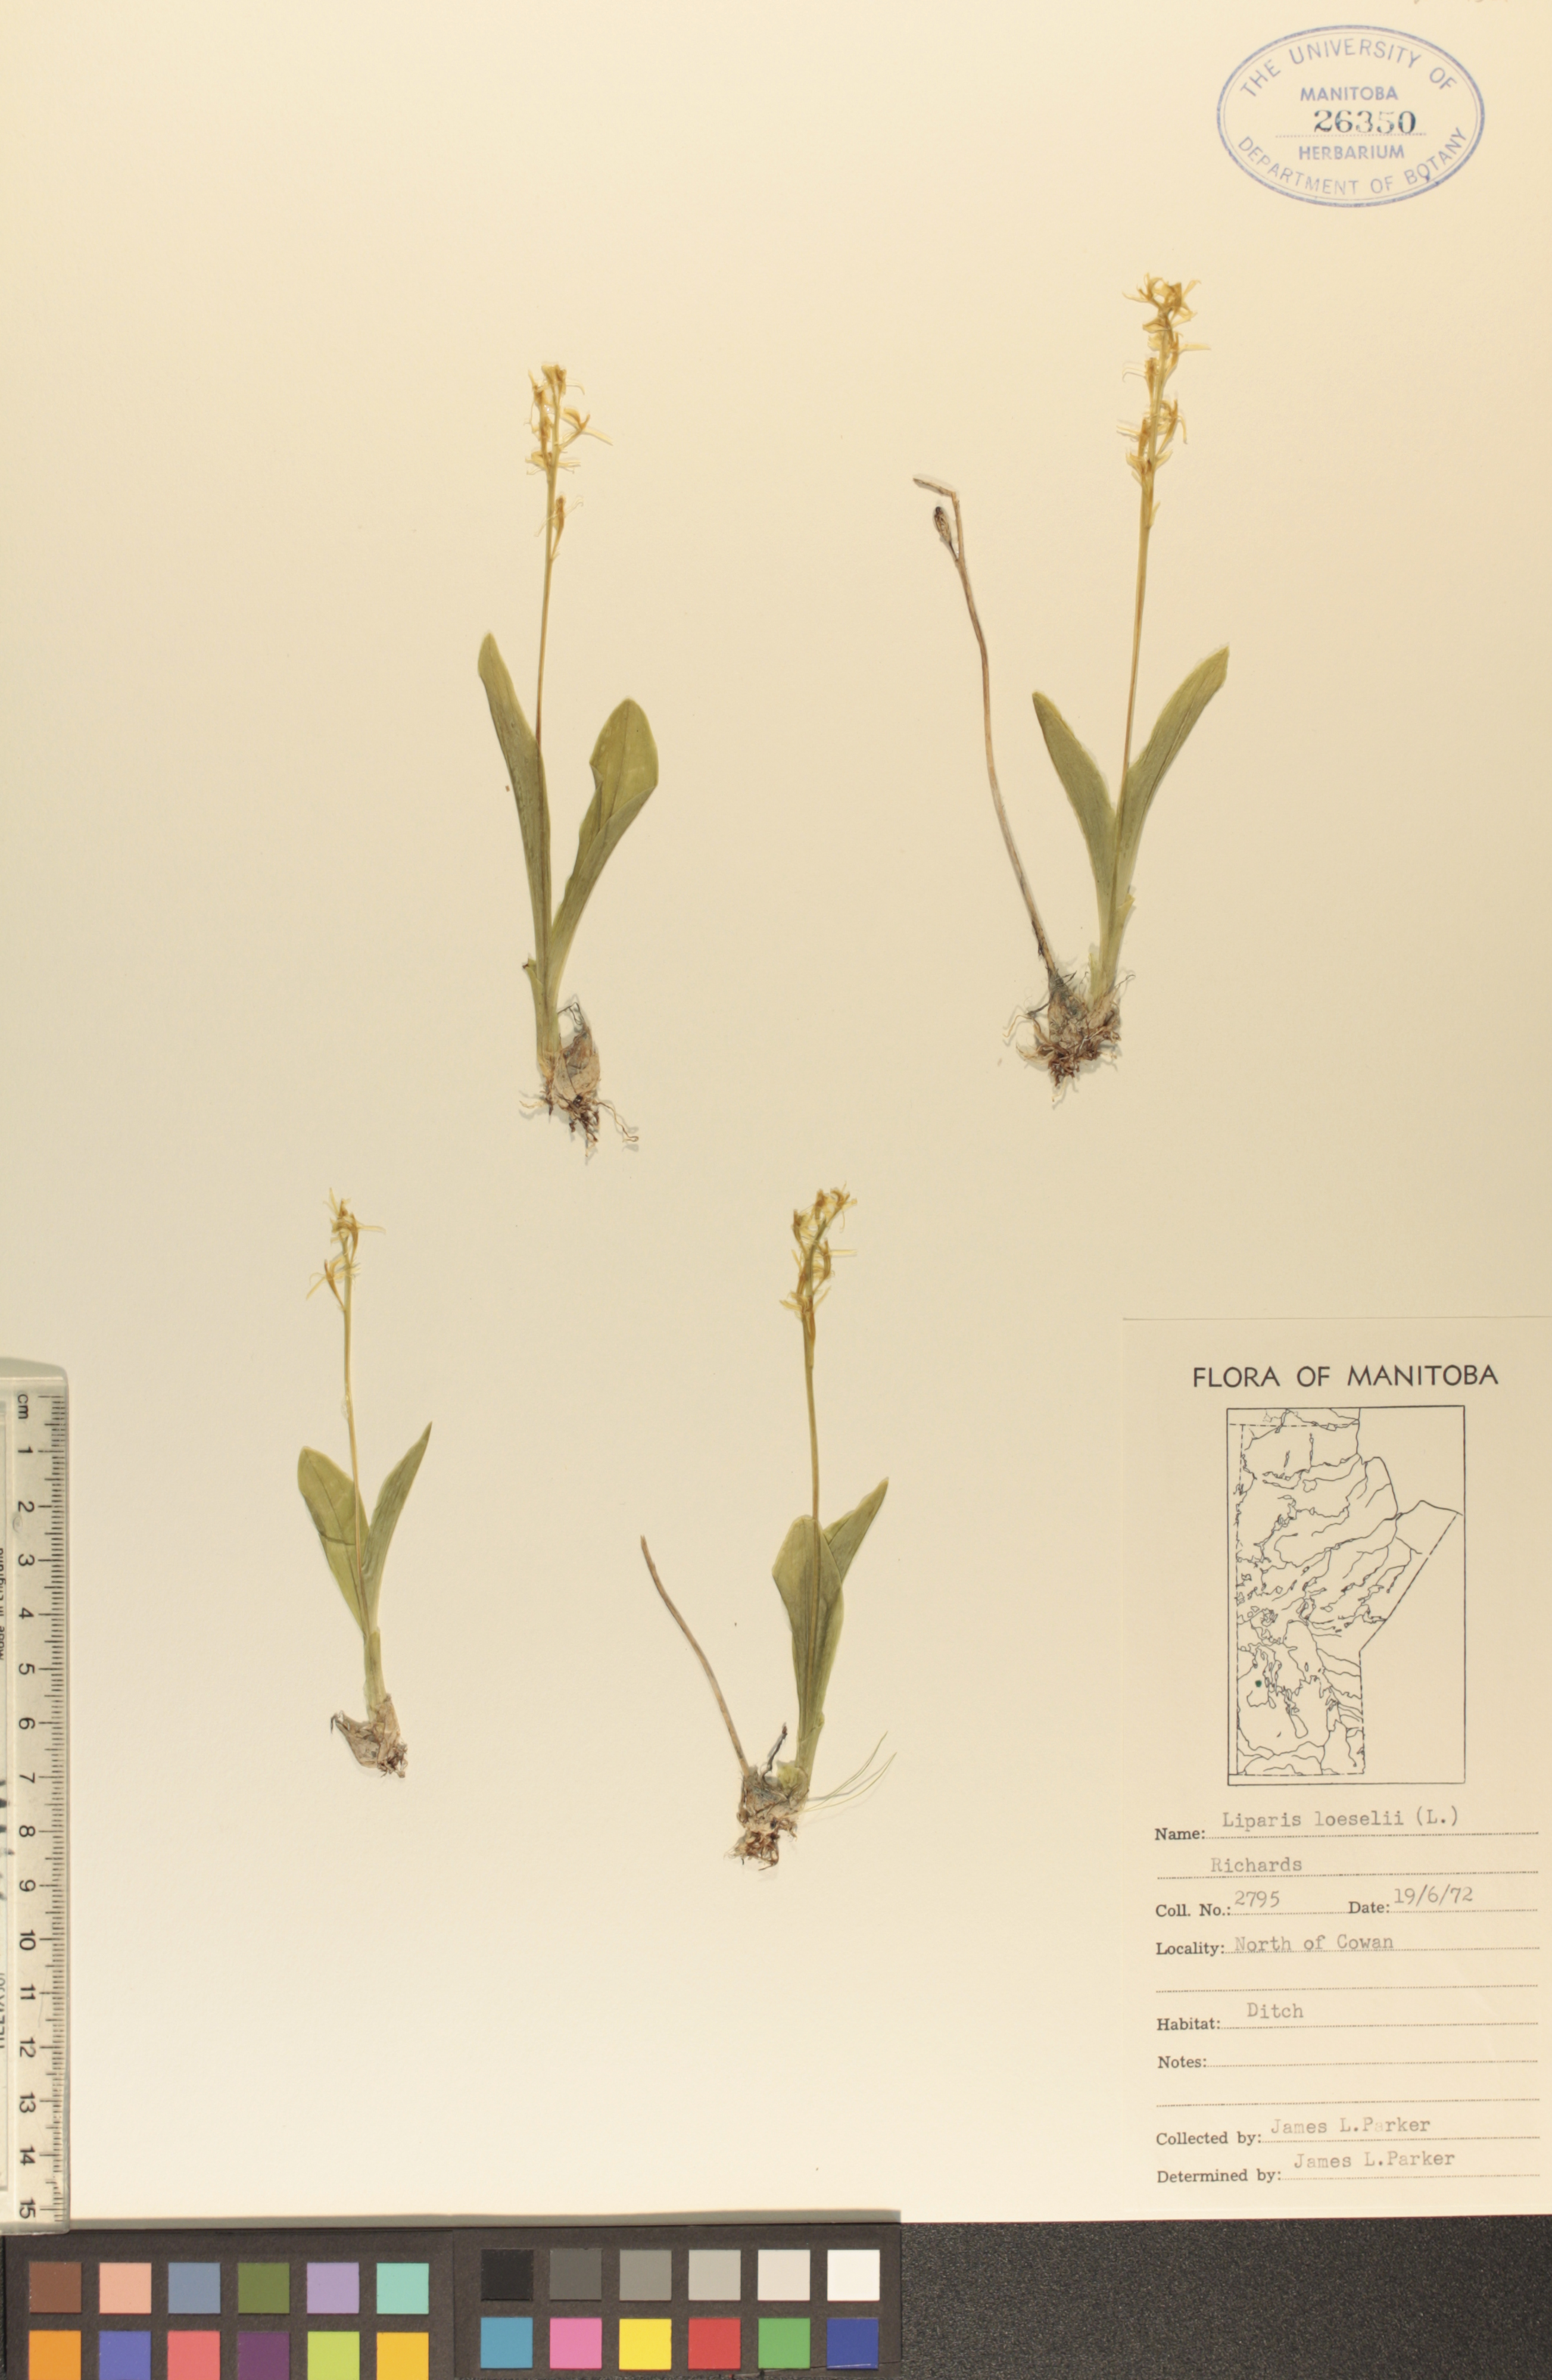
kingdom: Animalia
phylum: Arthropoda
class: Insecta
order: Coleoptera
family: Curculionidae
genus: Liparis
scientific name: Liparis loeselii
